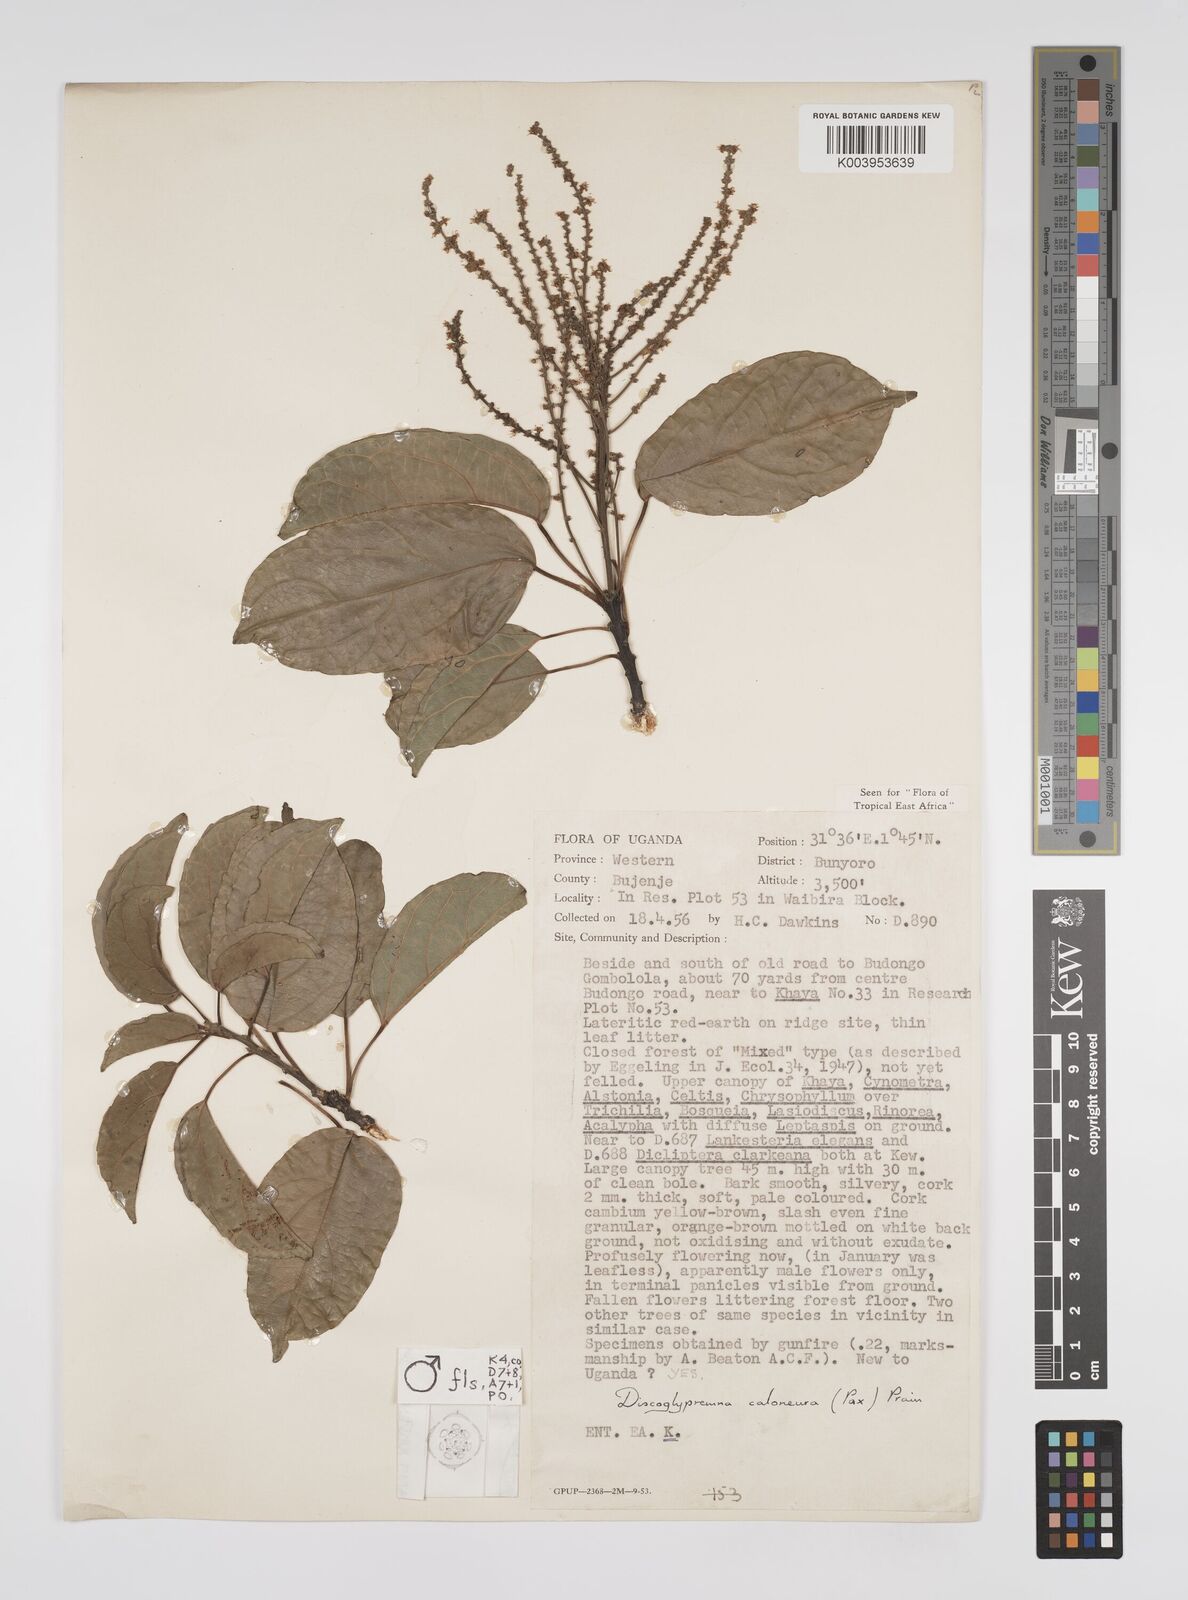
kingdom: Plantae
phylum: Tracheophyta
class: Magnoliopsida
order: Malpighiales
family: Euphorbiaceae
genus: Discoglypremna
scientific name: Discoglypremna caloneura
